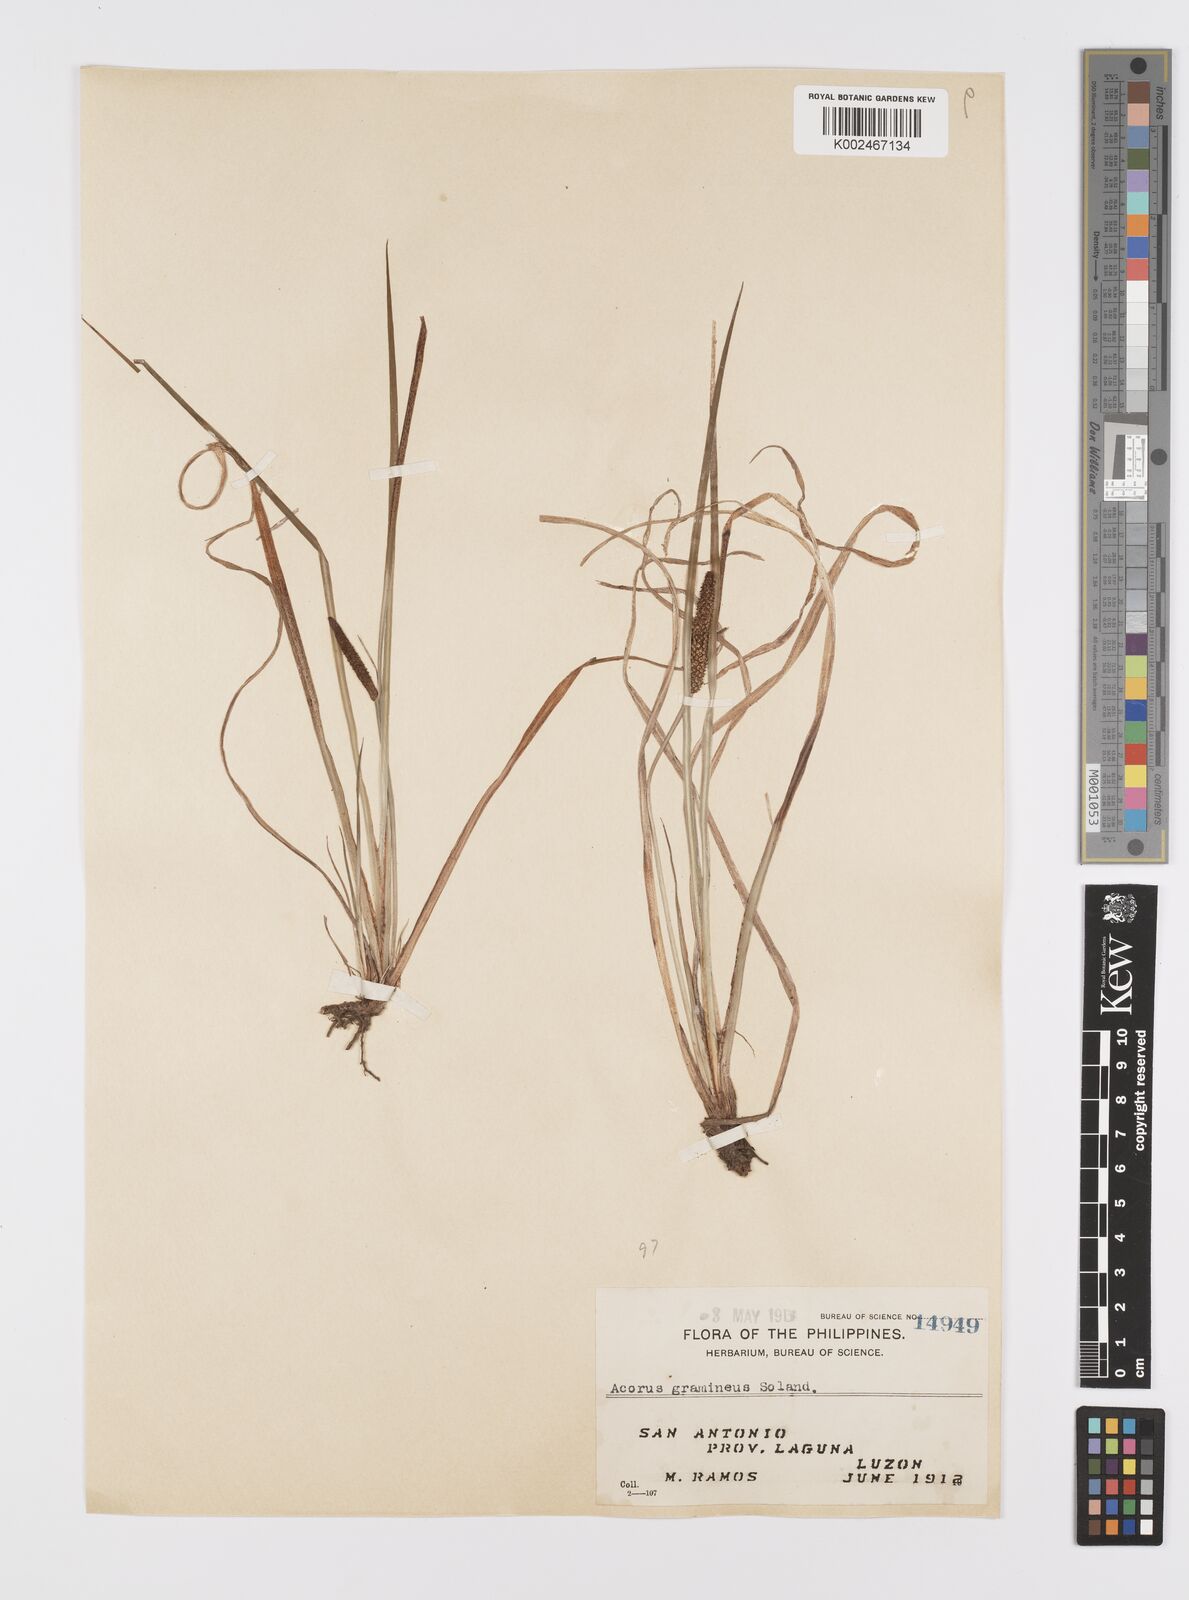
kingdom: Plantae
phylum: Tracheophyta
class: Liliopsida
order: Acorales
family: Acoraceae
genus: Acorus
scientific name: Acorus gramineus
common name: Slender sweet-flag
